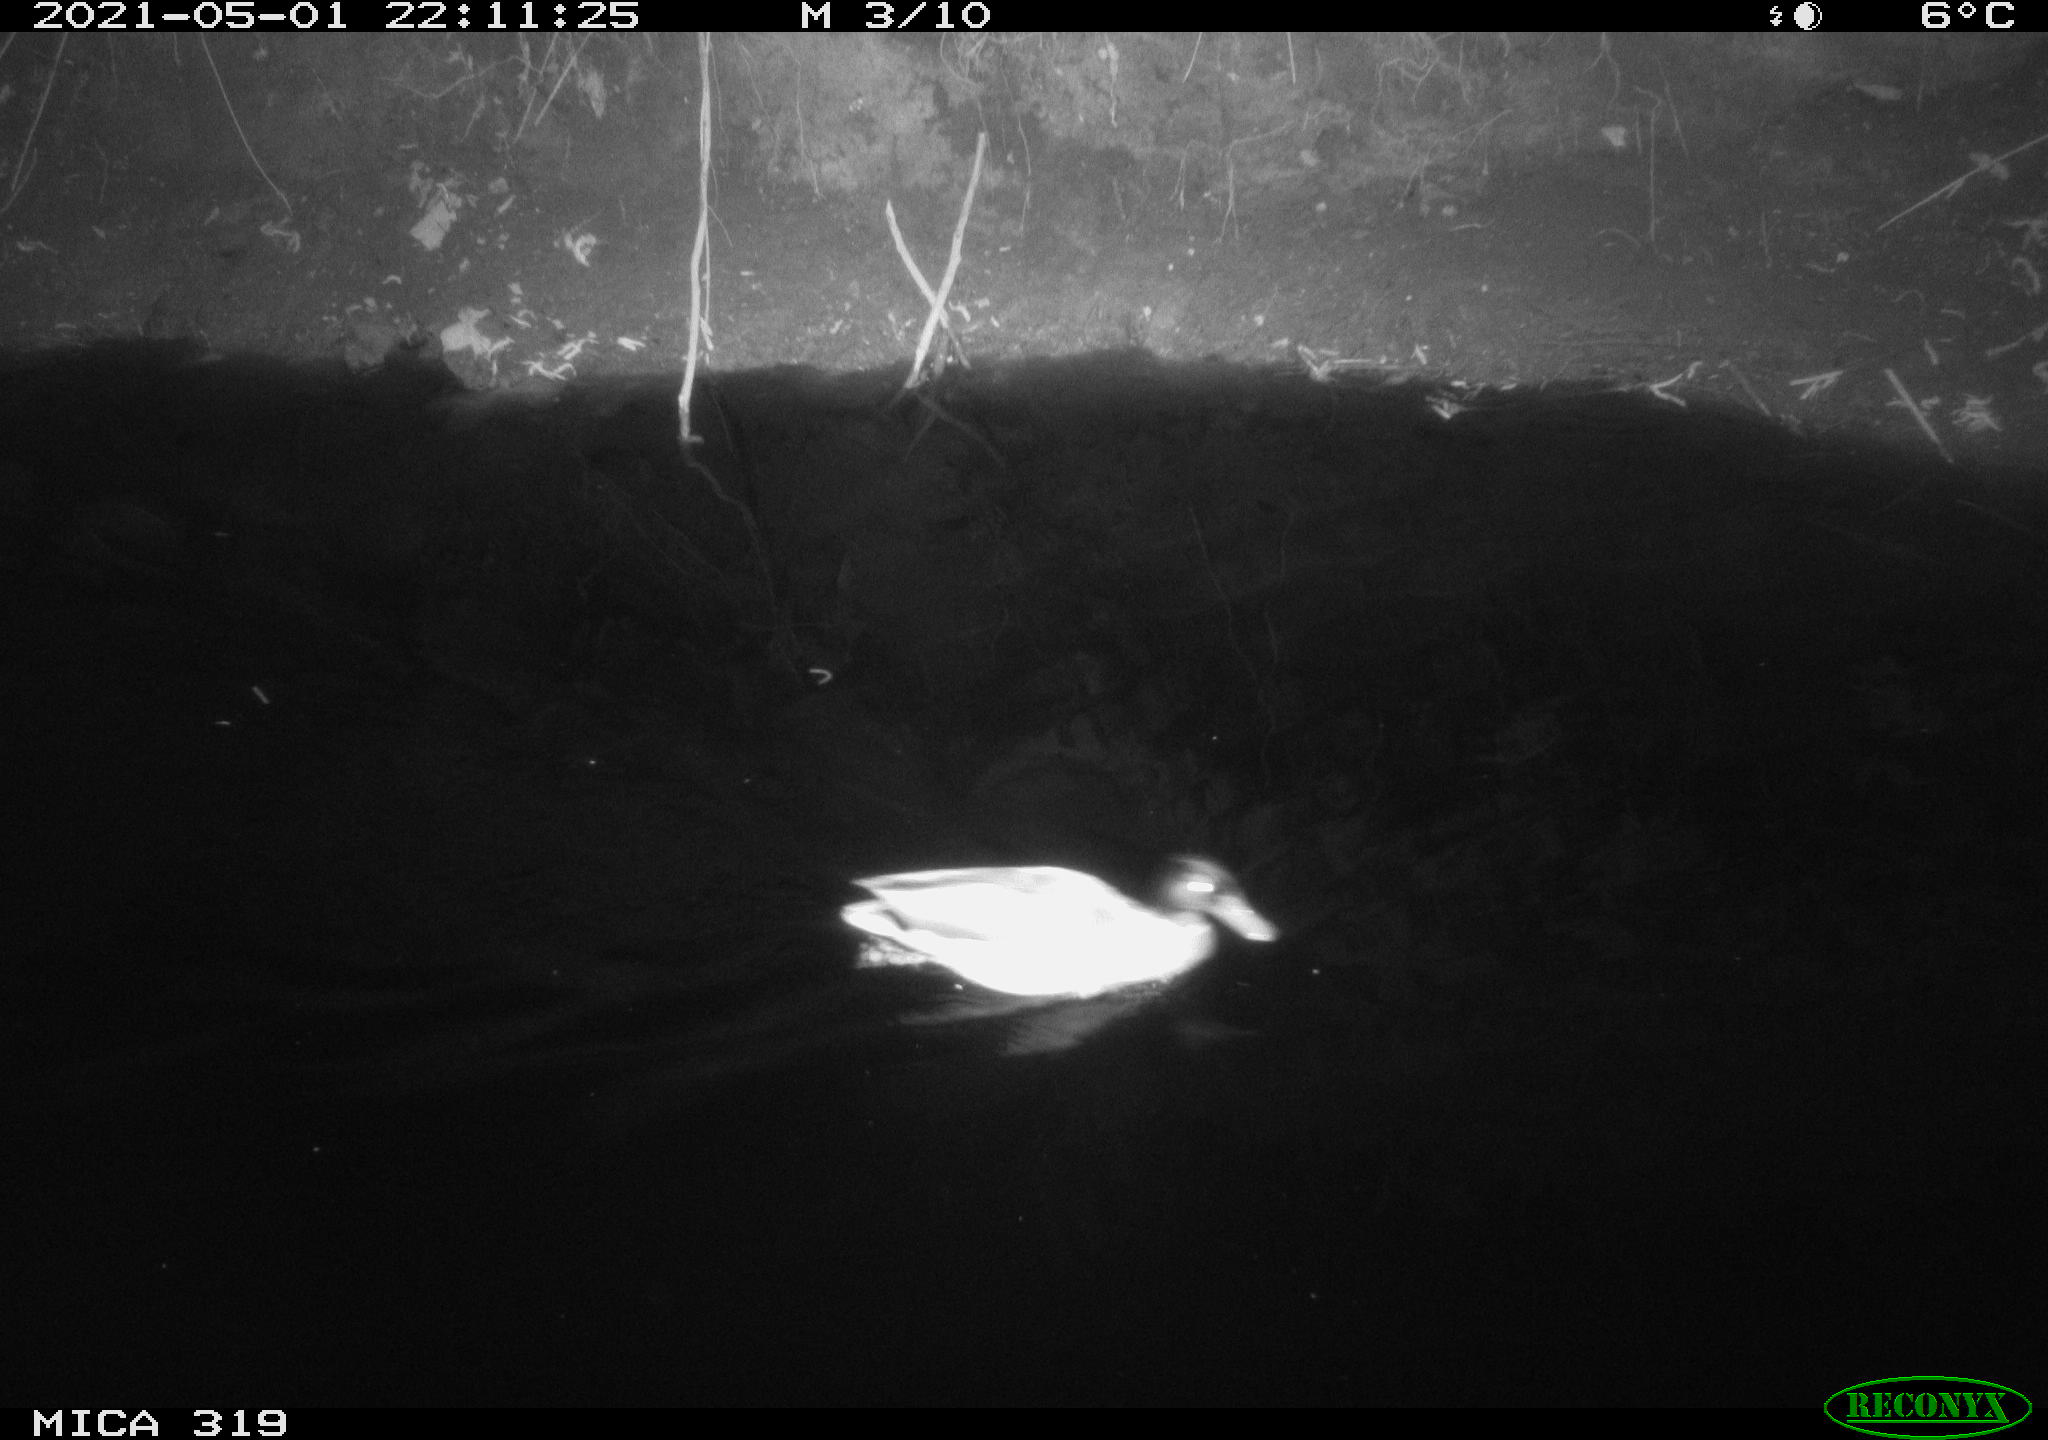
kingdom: Animalia
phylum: Chordata
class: Aves
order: Anseriformes
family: Anatidae
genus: Anas
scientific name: Anas platyrhynchos
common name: Mallard
